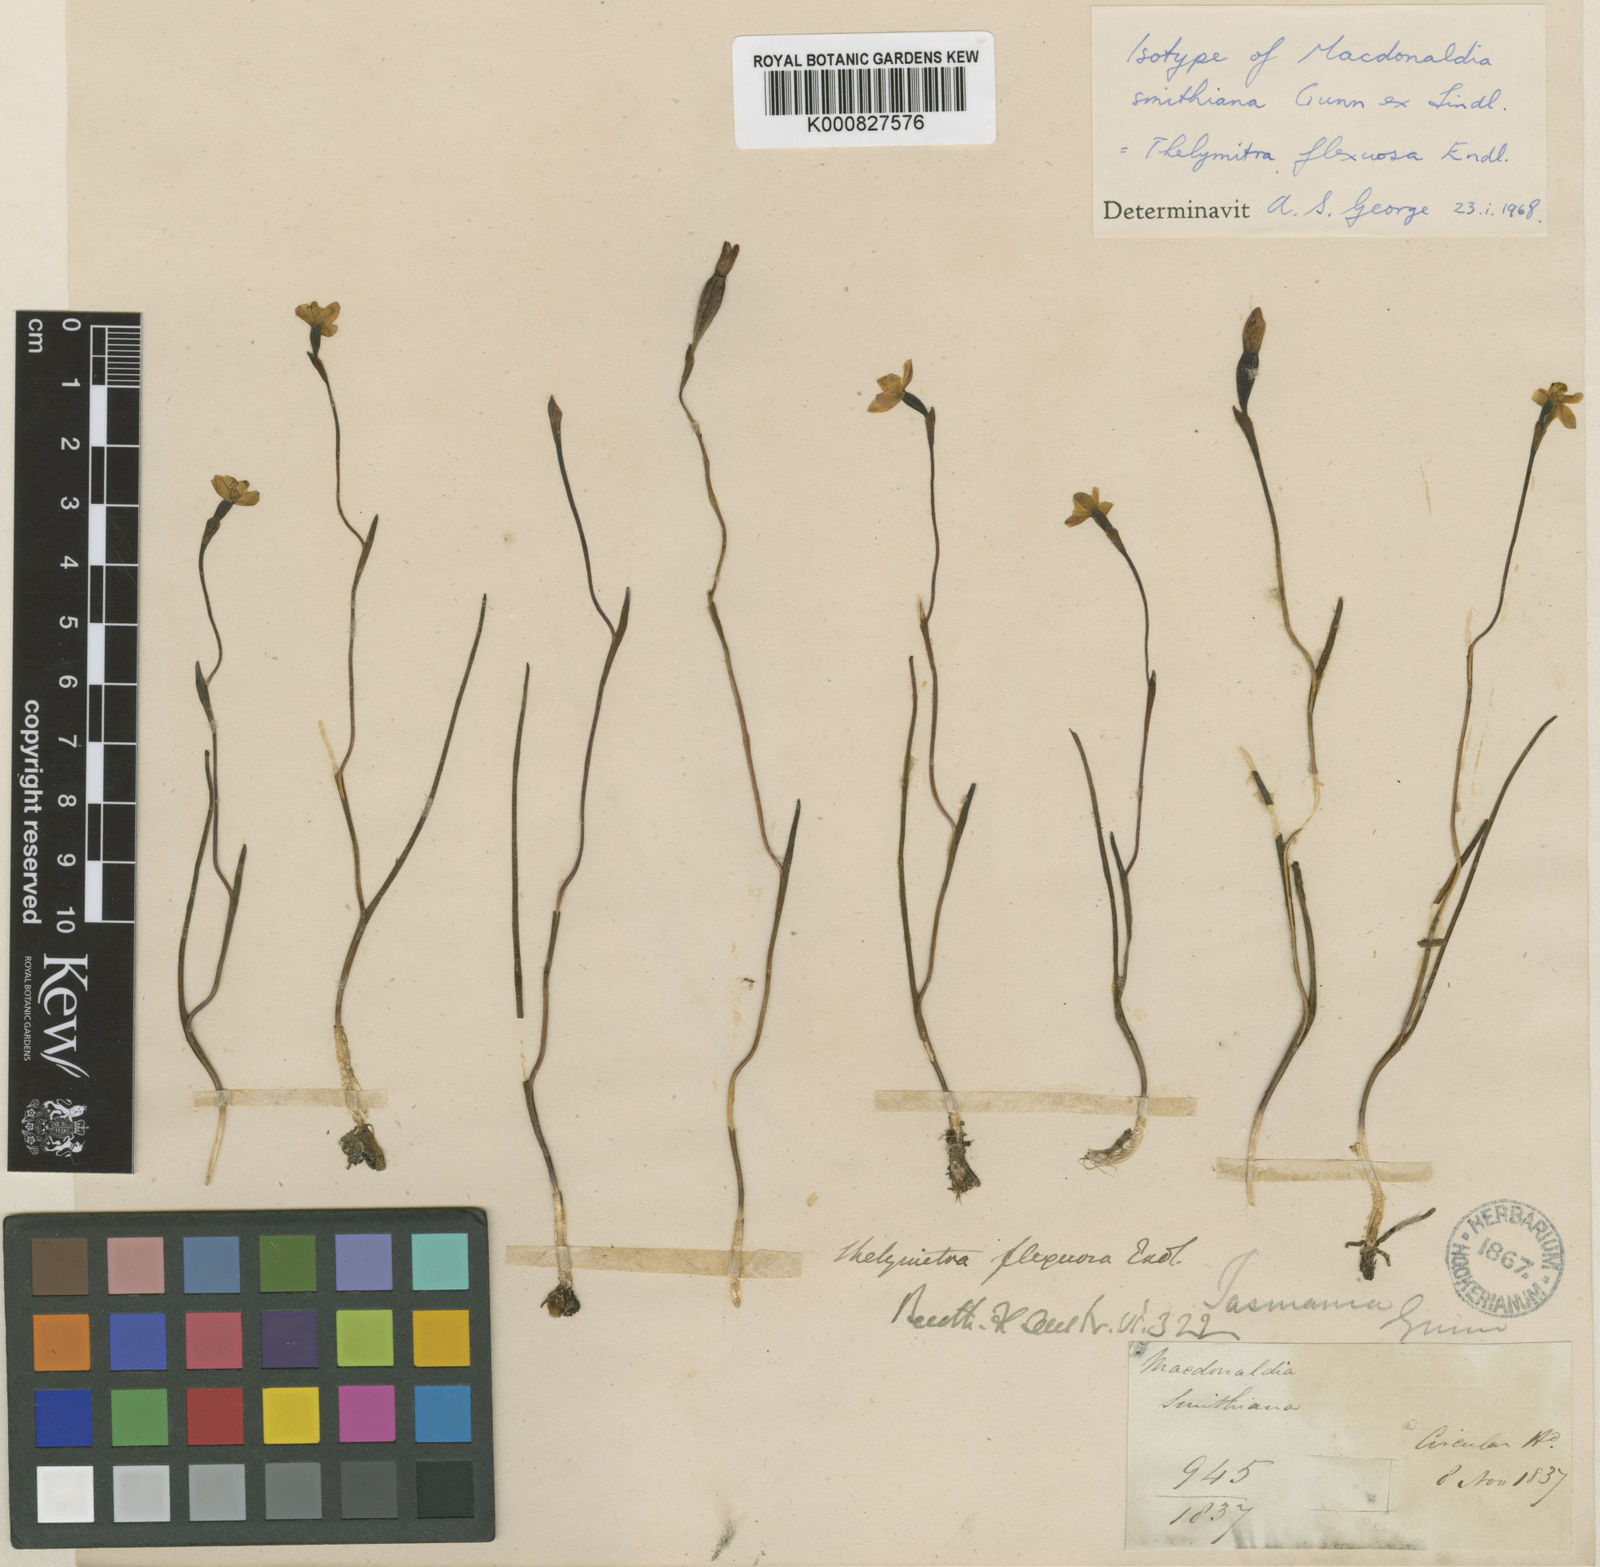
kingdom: Plantae
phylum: Tracheophyta
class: Liliopsida
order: Asparagales
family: Orchidaceae
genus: Thelymitra
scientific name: Thelymitra flexuosa
